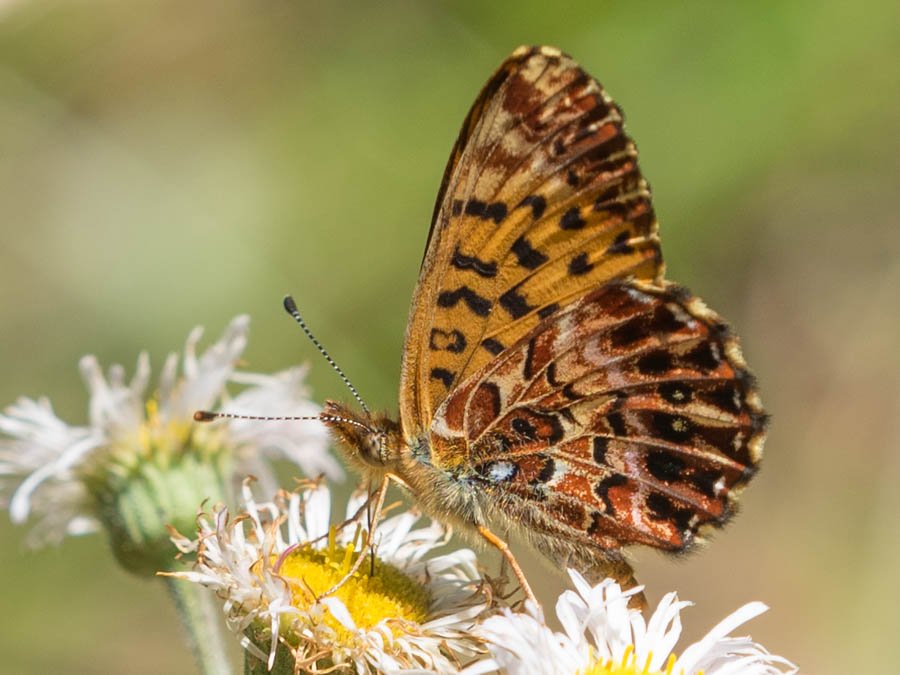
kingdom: Animalia
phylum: Arthropoda
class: Insecta
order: Lepidoptera
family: Nymphalidae
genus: Boloria
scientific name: Boloria chariclea
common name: Arctic Fritillary
